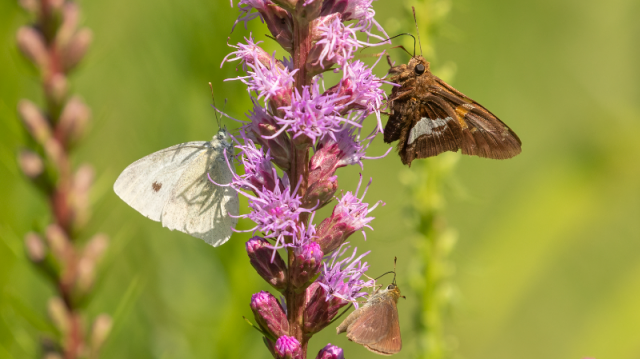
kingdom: Animalia
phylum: Arthropoda
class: Insecta
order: Lepidoptera
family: Hesperiidae
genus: Epargyreus
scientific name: Epargyreus clarus
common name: Silver-spotted Skipper
